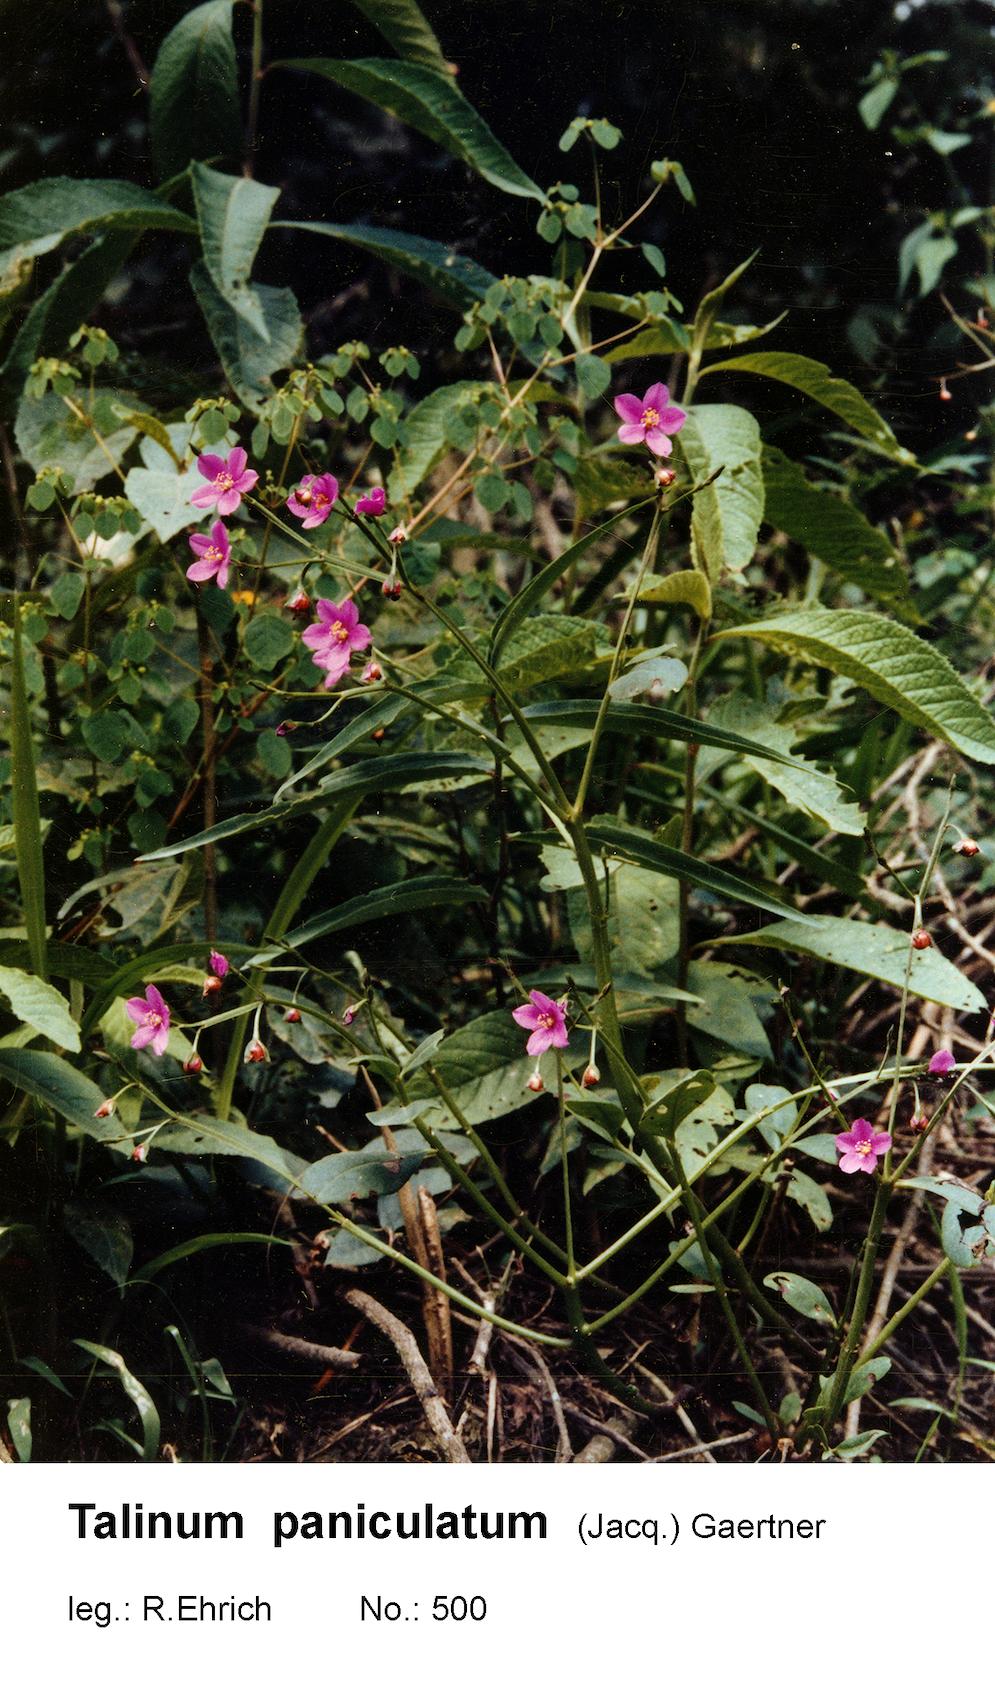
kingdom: Plantae
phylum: Tracheophyta
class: Magnoliopsida
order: Caryophyllales
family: Talinaceae
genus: Talinum
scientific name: Talinum paniculatum
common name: Jewels of opar
